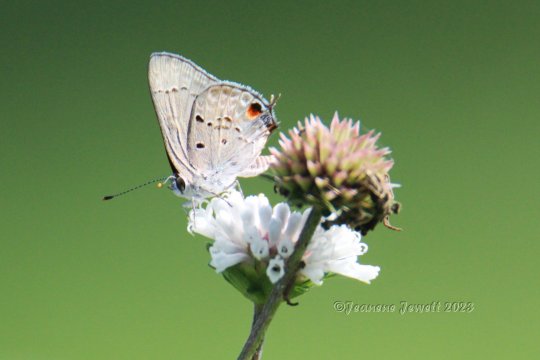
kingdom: Animalia
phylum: Arthropoda
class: Insecta
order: Lepidoptera
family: Lycaenidae
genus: Callicista
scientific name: Callicista columella
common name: Mallow Scrub-Hairstreak
